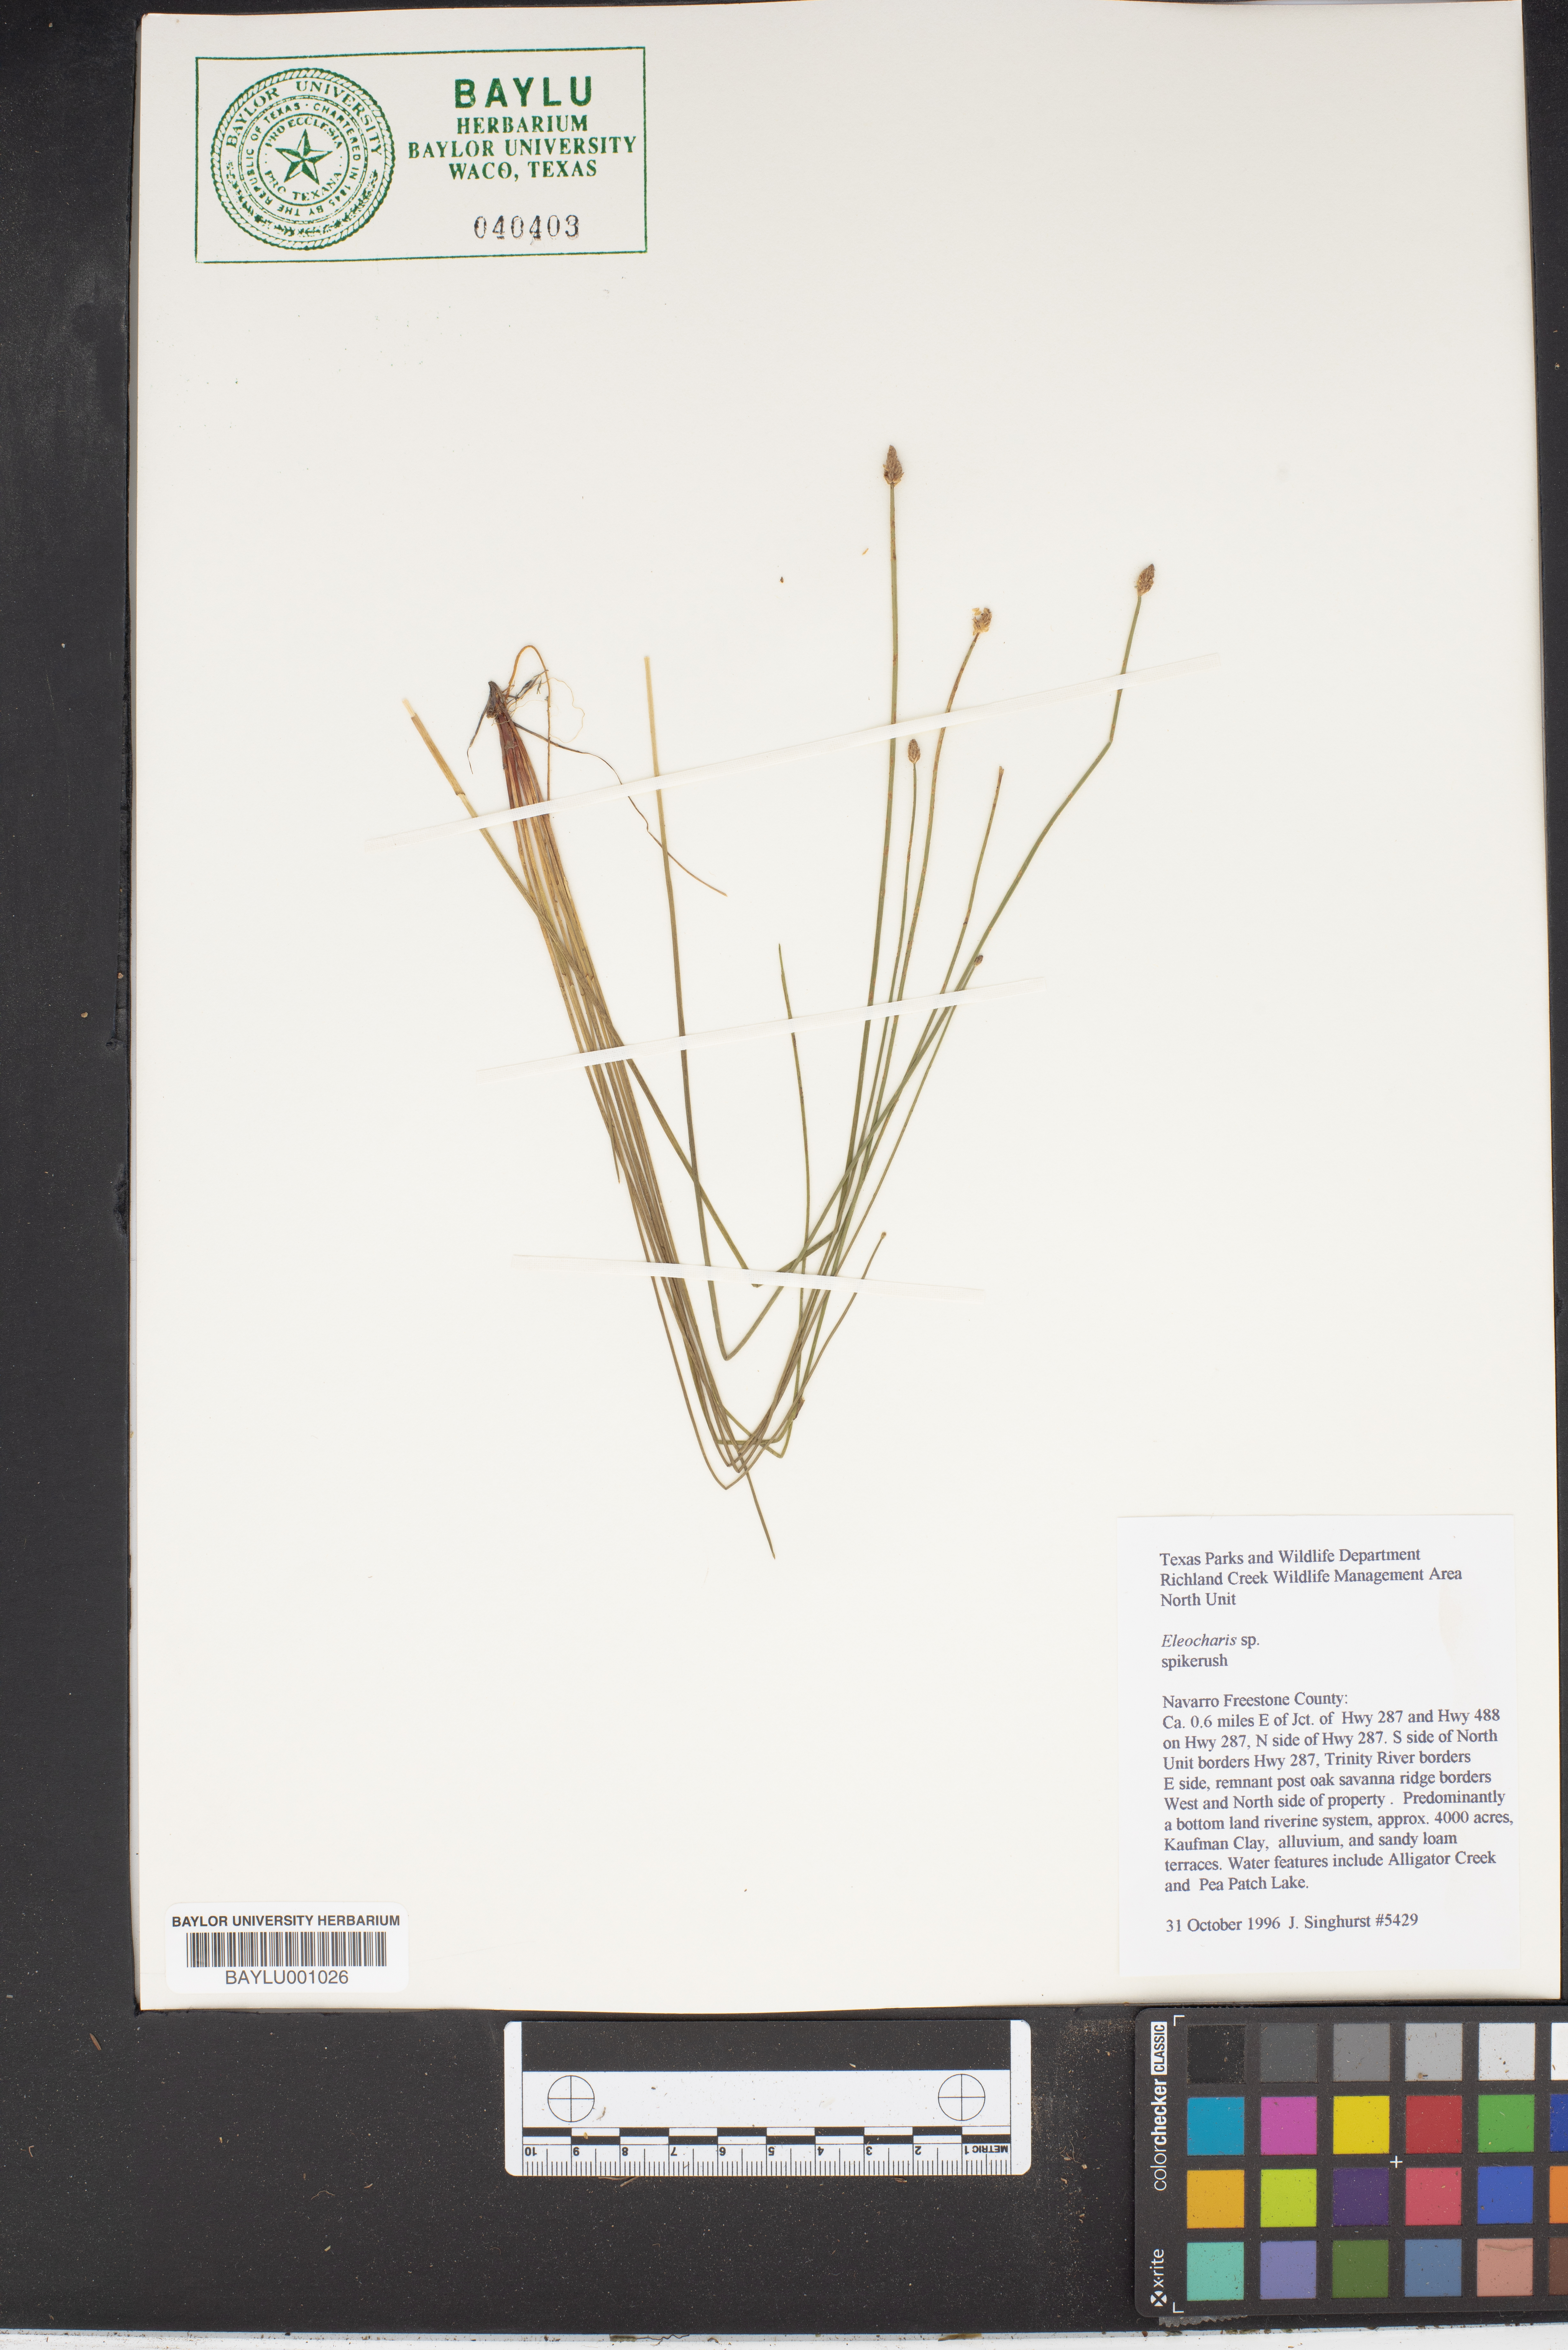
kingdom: Plantae
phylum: Tracheophyta
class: Liliopsida
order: Poales
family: Cyperaceae
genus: Eleocharis
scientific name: Eleocharis
